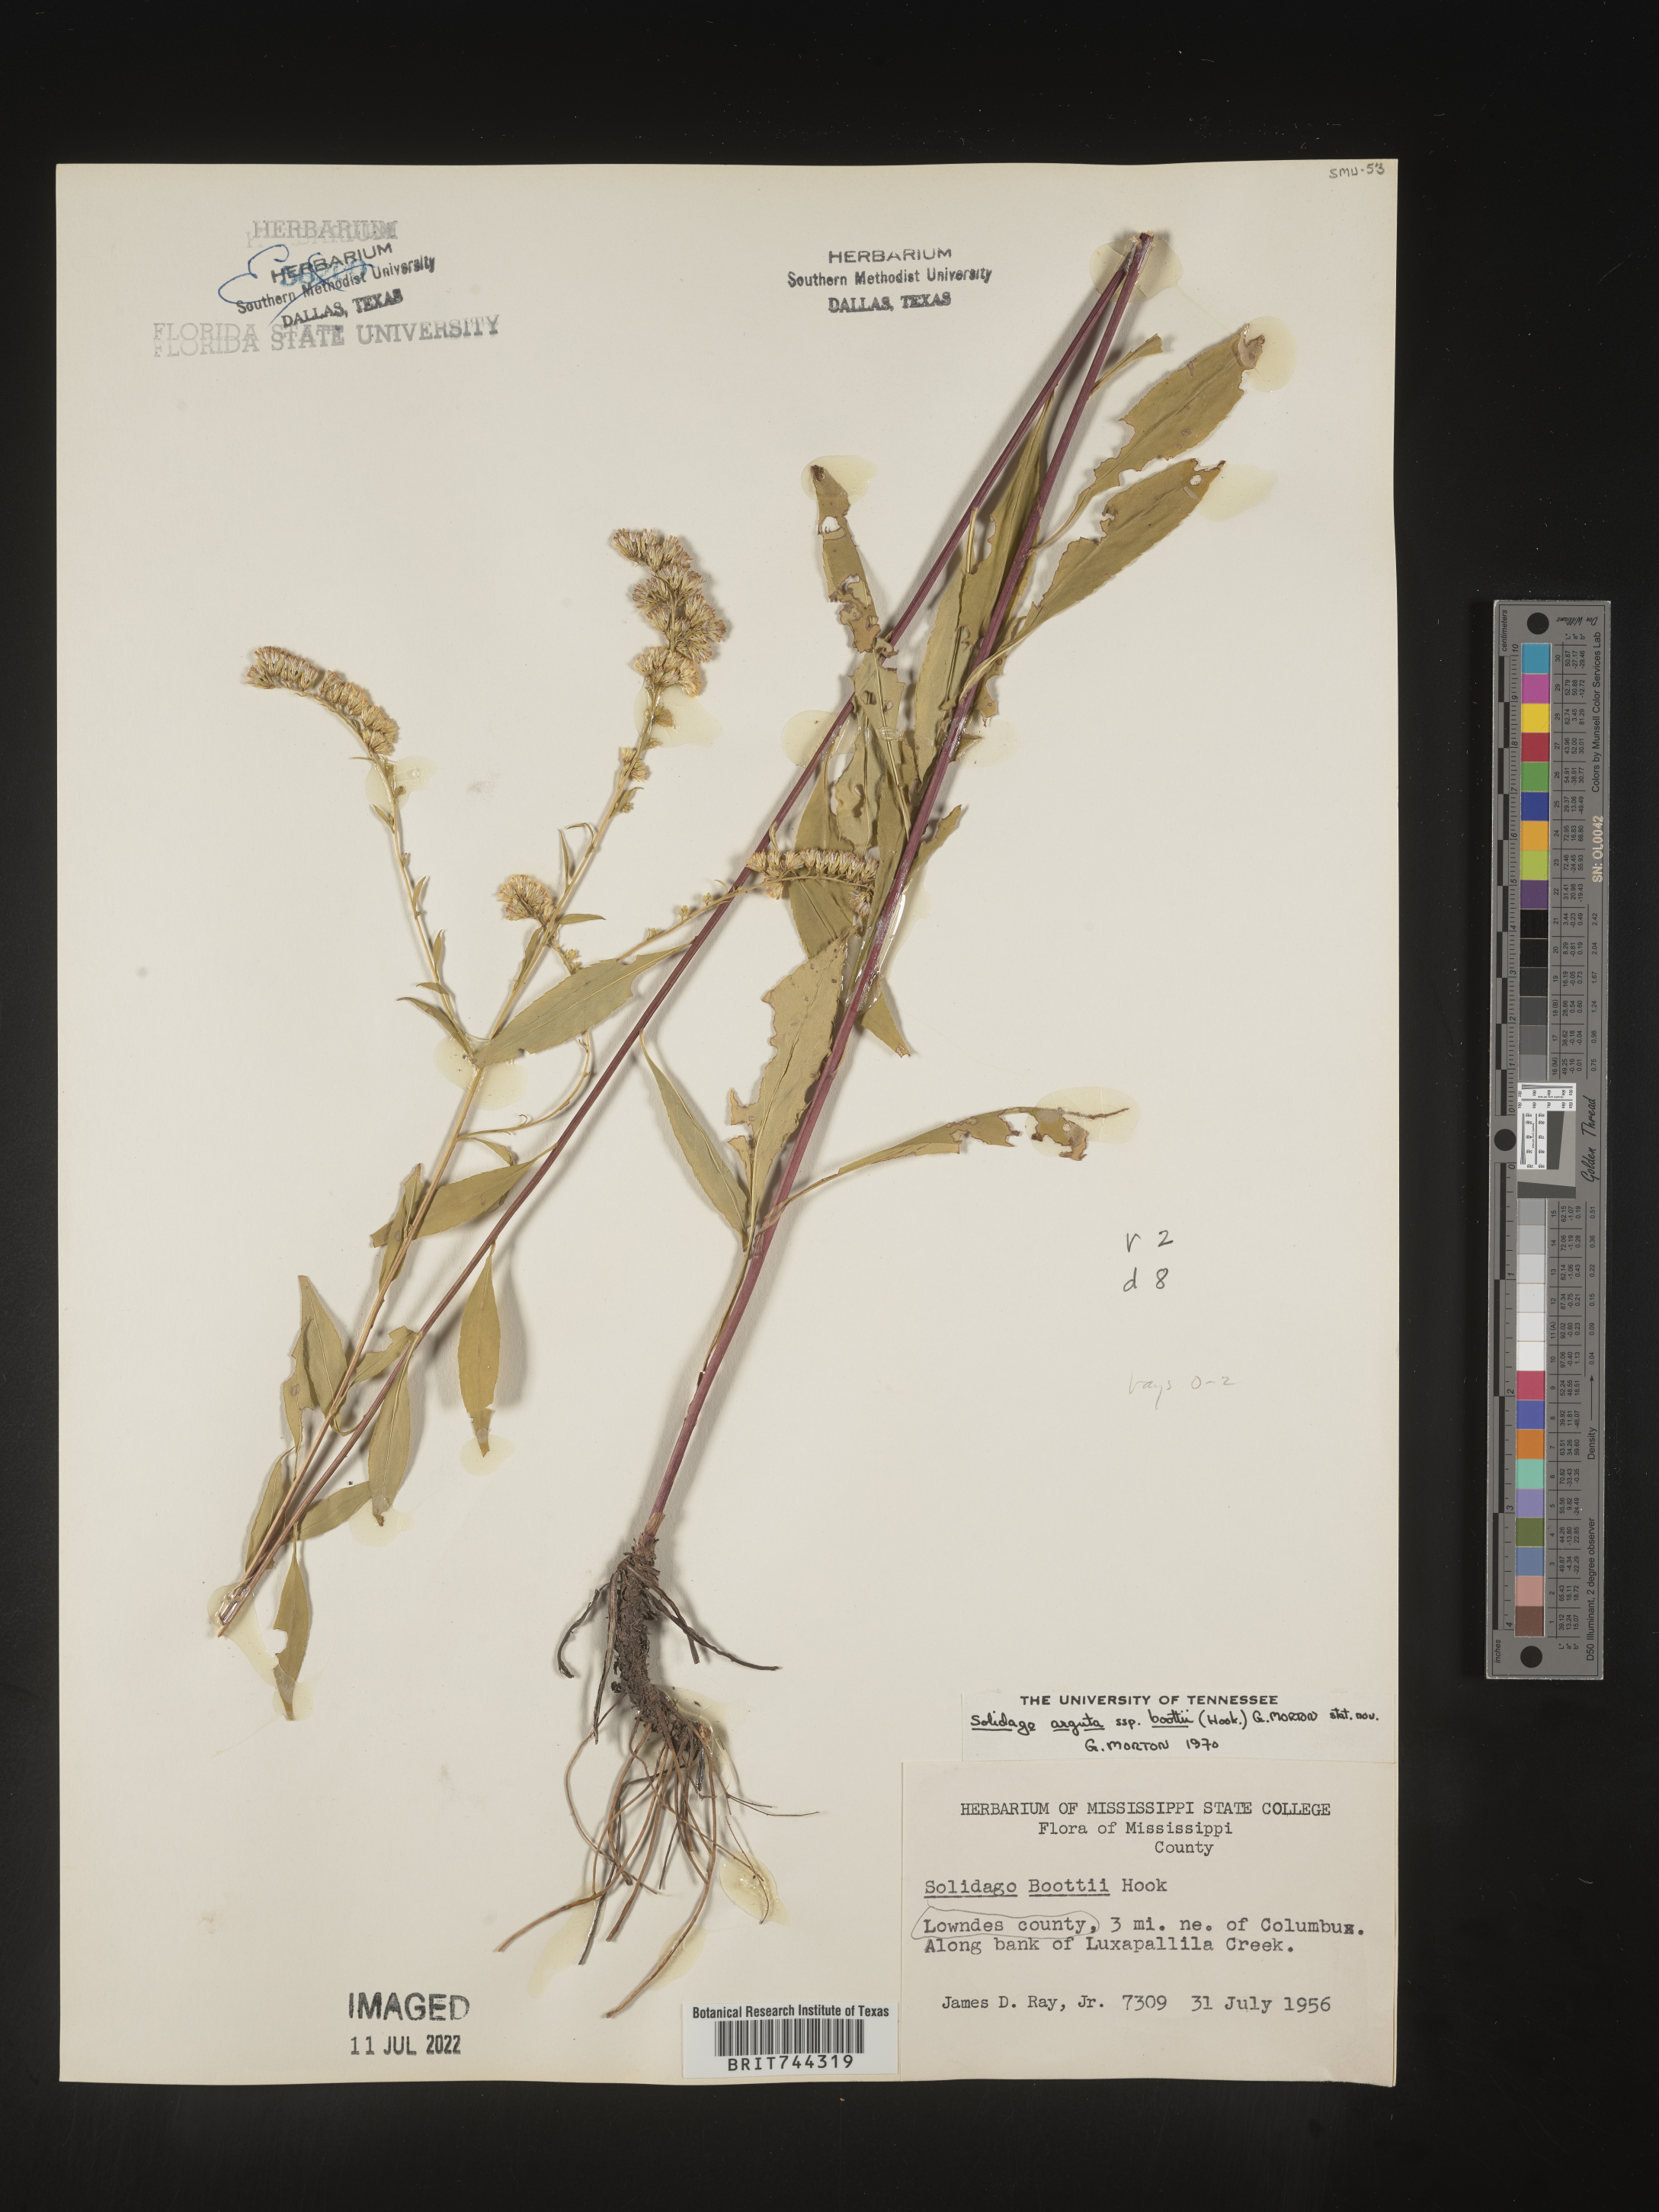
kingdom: Plantae
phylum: Tracheophyta
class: Magnoliopsida
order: Asterales
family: Asteraceae
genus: Solidago
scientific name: Solidago arguta
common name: Atlantic goldenrod
